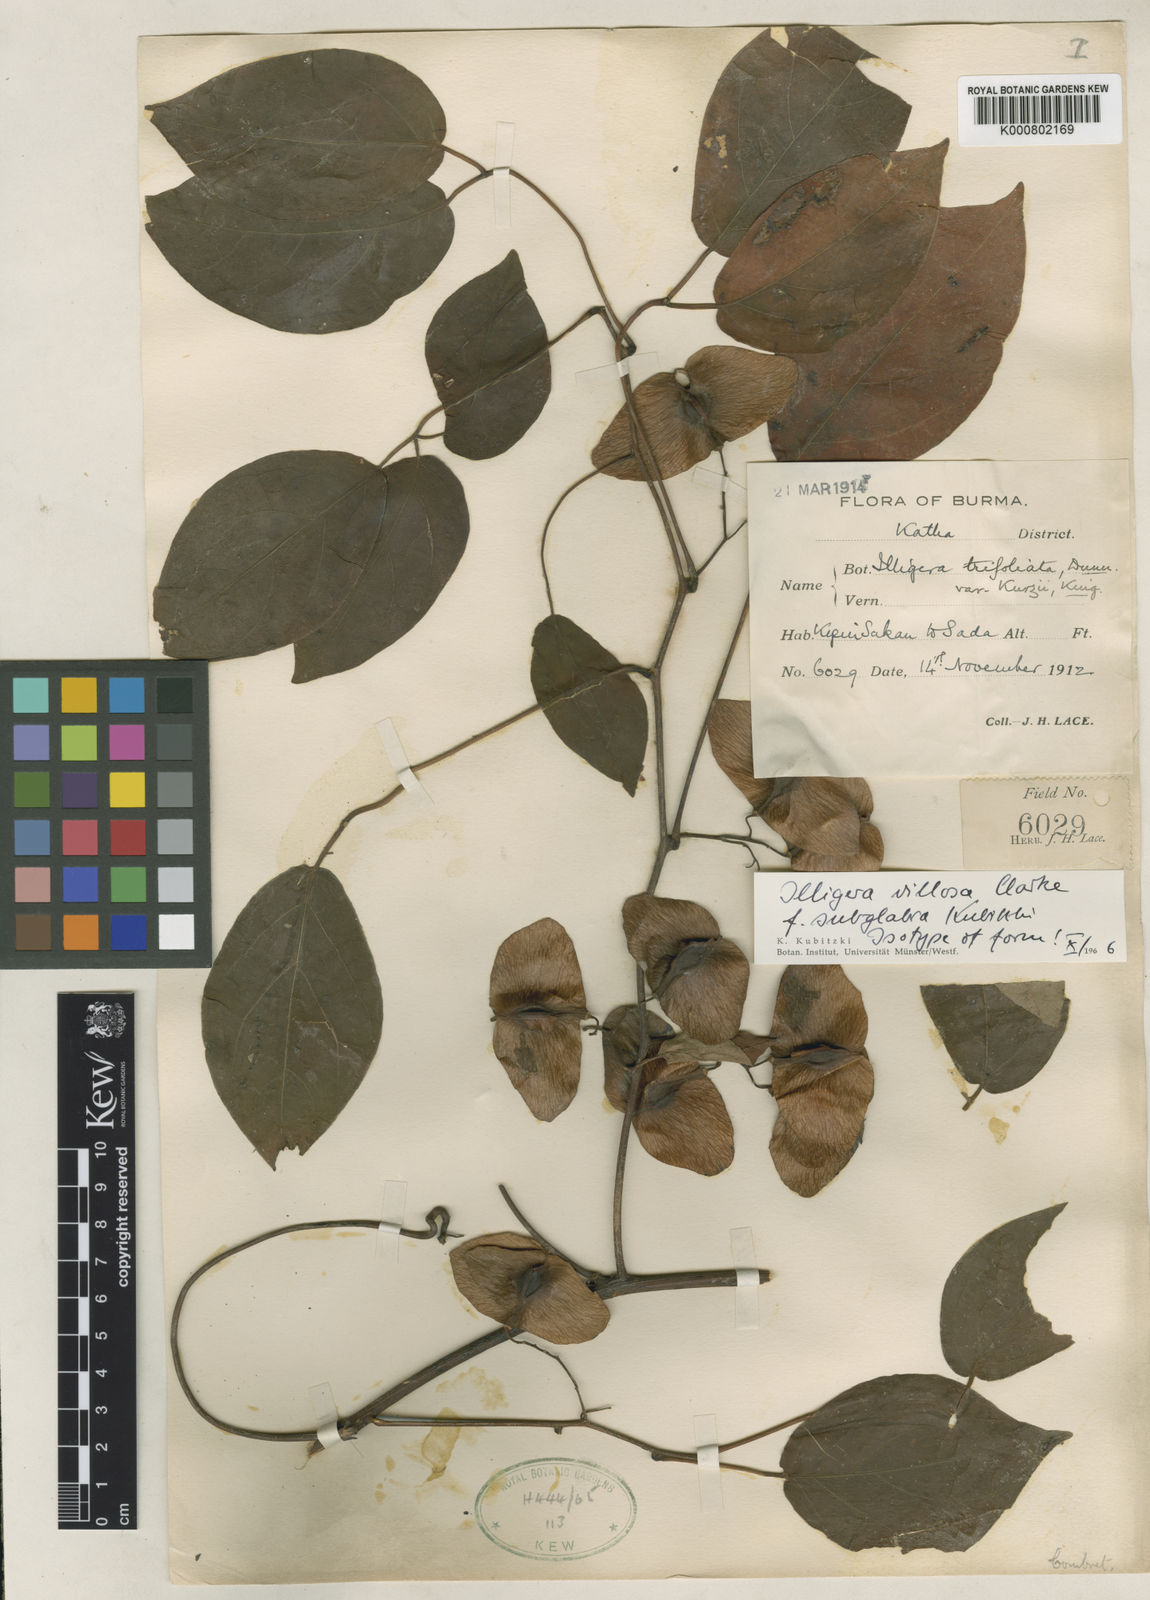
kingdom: Plantae
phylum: Tracheophyta
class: Magnoliopsida
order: Laurales
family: Hernandiaceae
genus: Illigera
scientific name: Illigera villosa
